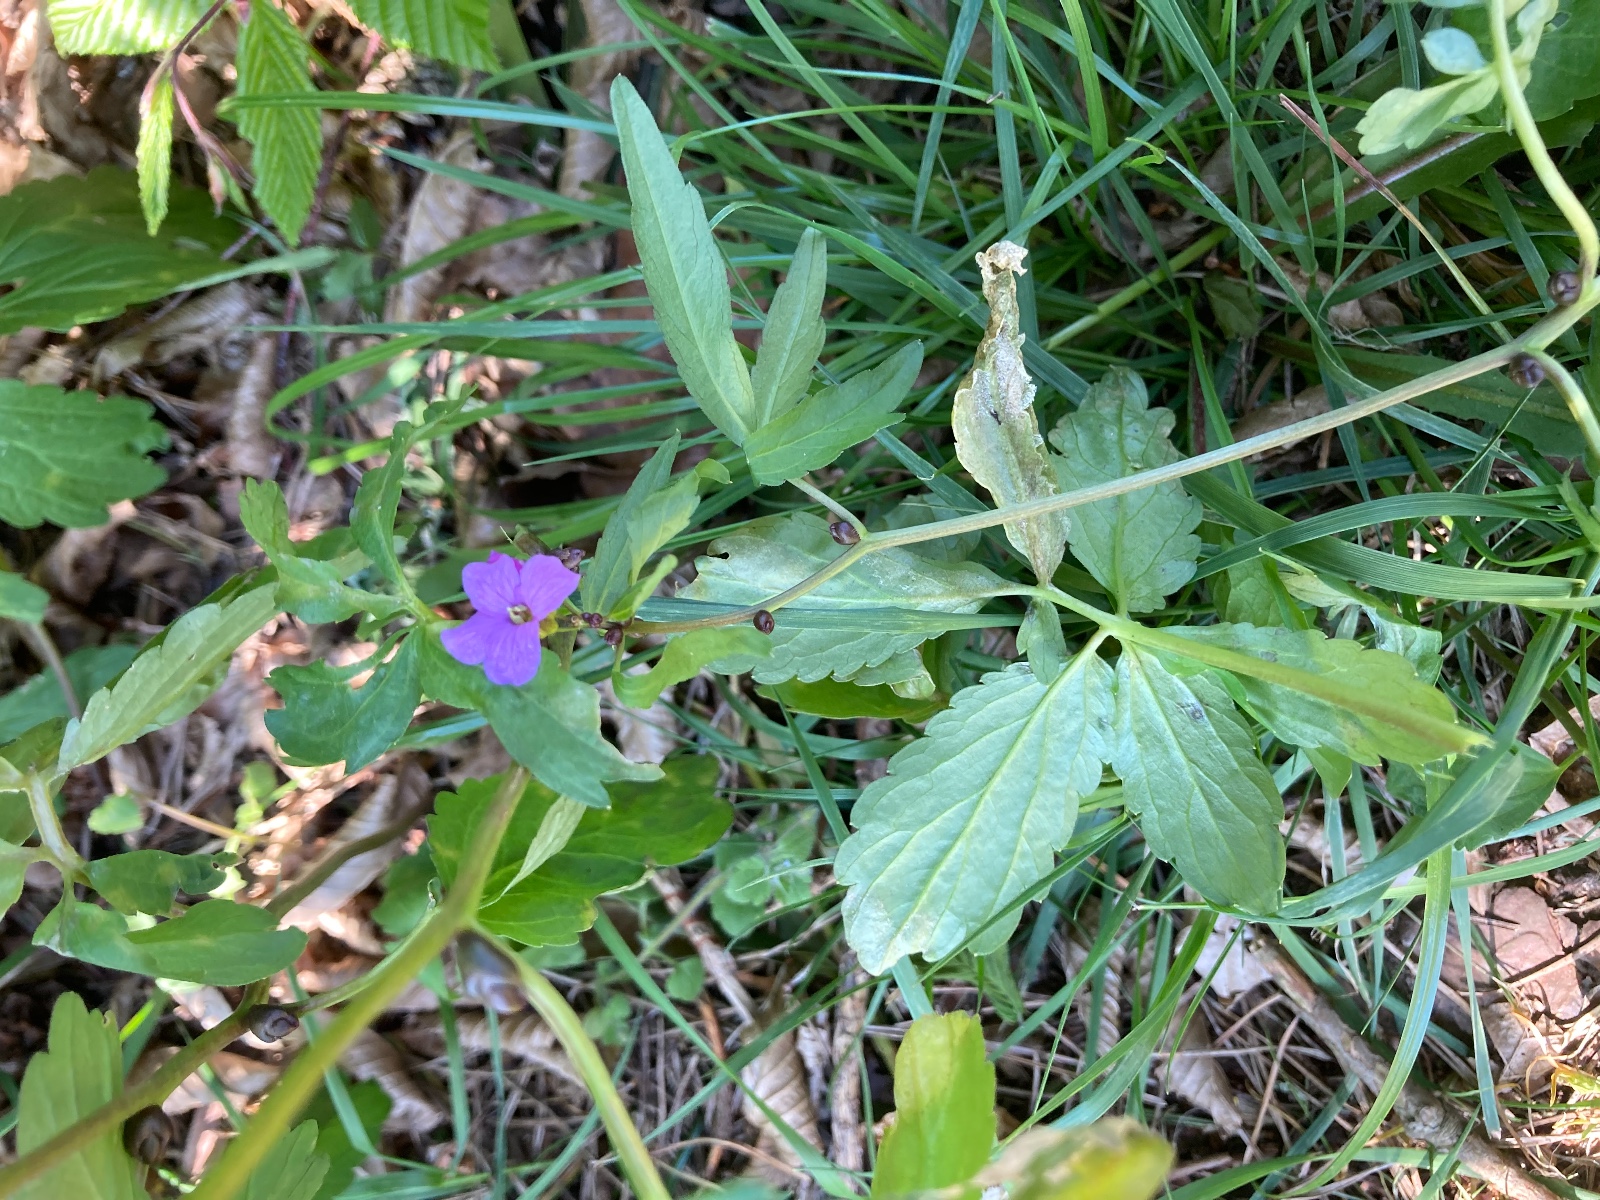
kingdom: Chromista
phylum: Oomycota
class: Peronosporea
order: Peronosporales
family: Peronosporaceae
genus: Hyaloperonospora
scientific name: Hyaloperonospora dentariae
